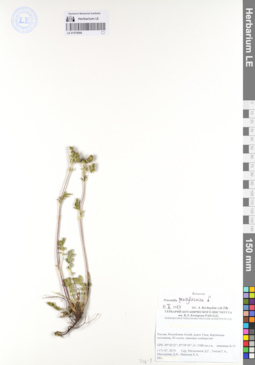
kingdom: Plantae
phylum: Tracheophyta
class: Magnoliopsida
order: Rosales
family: Rosaceae
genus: Potentilla
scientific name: Potentilla pensylvanica
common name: Pennsylvania cinquefoil
